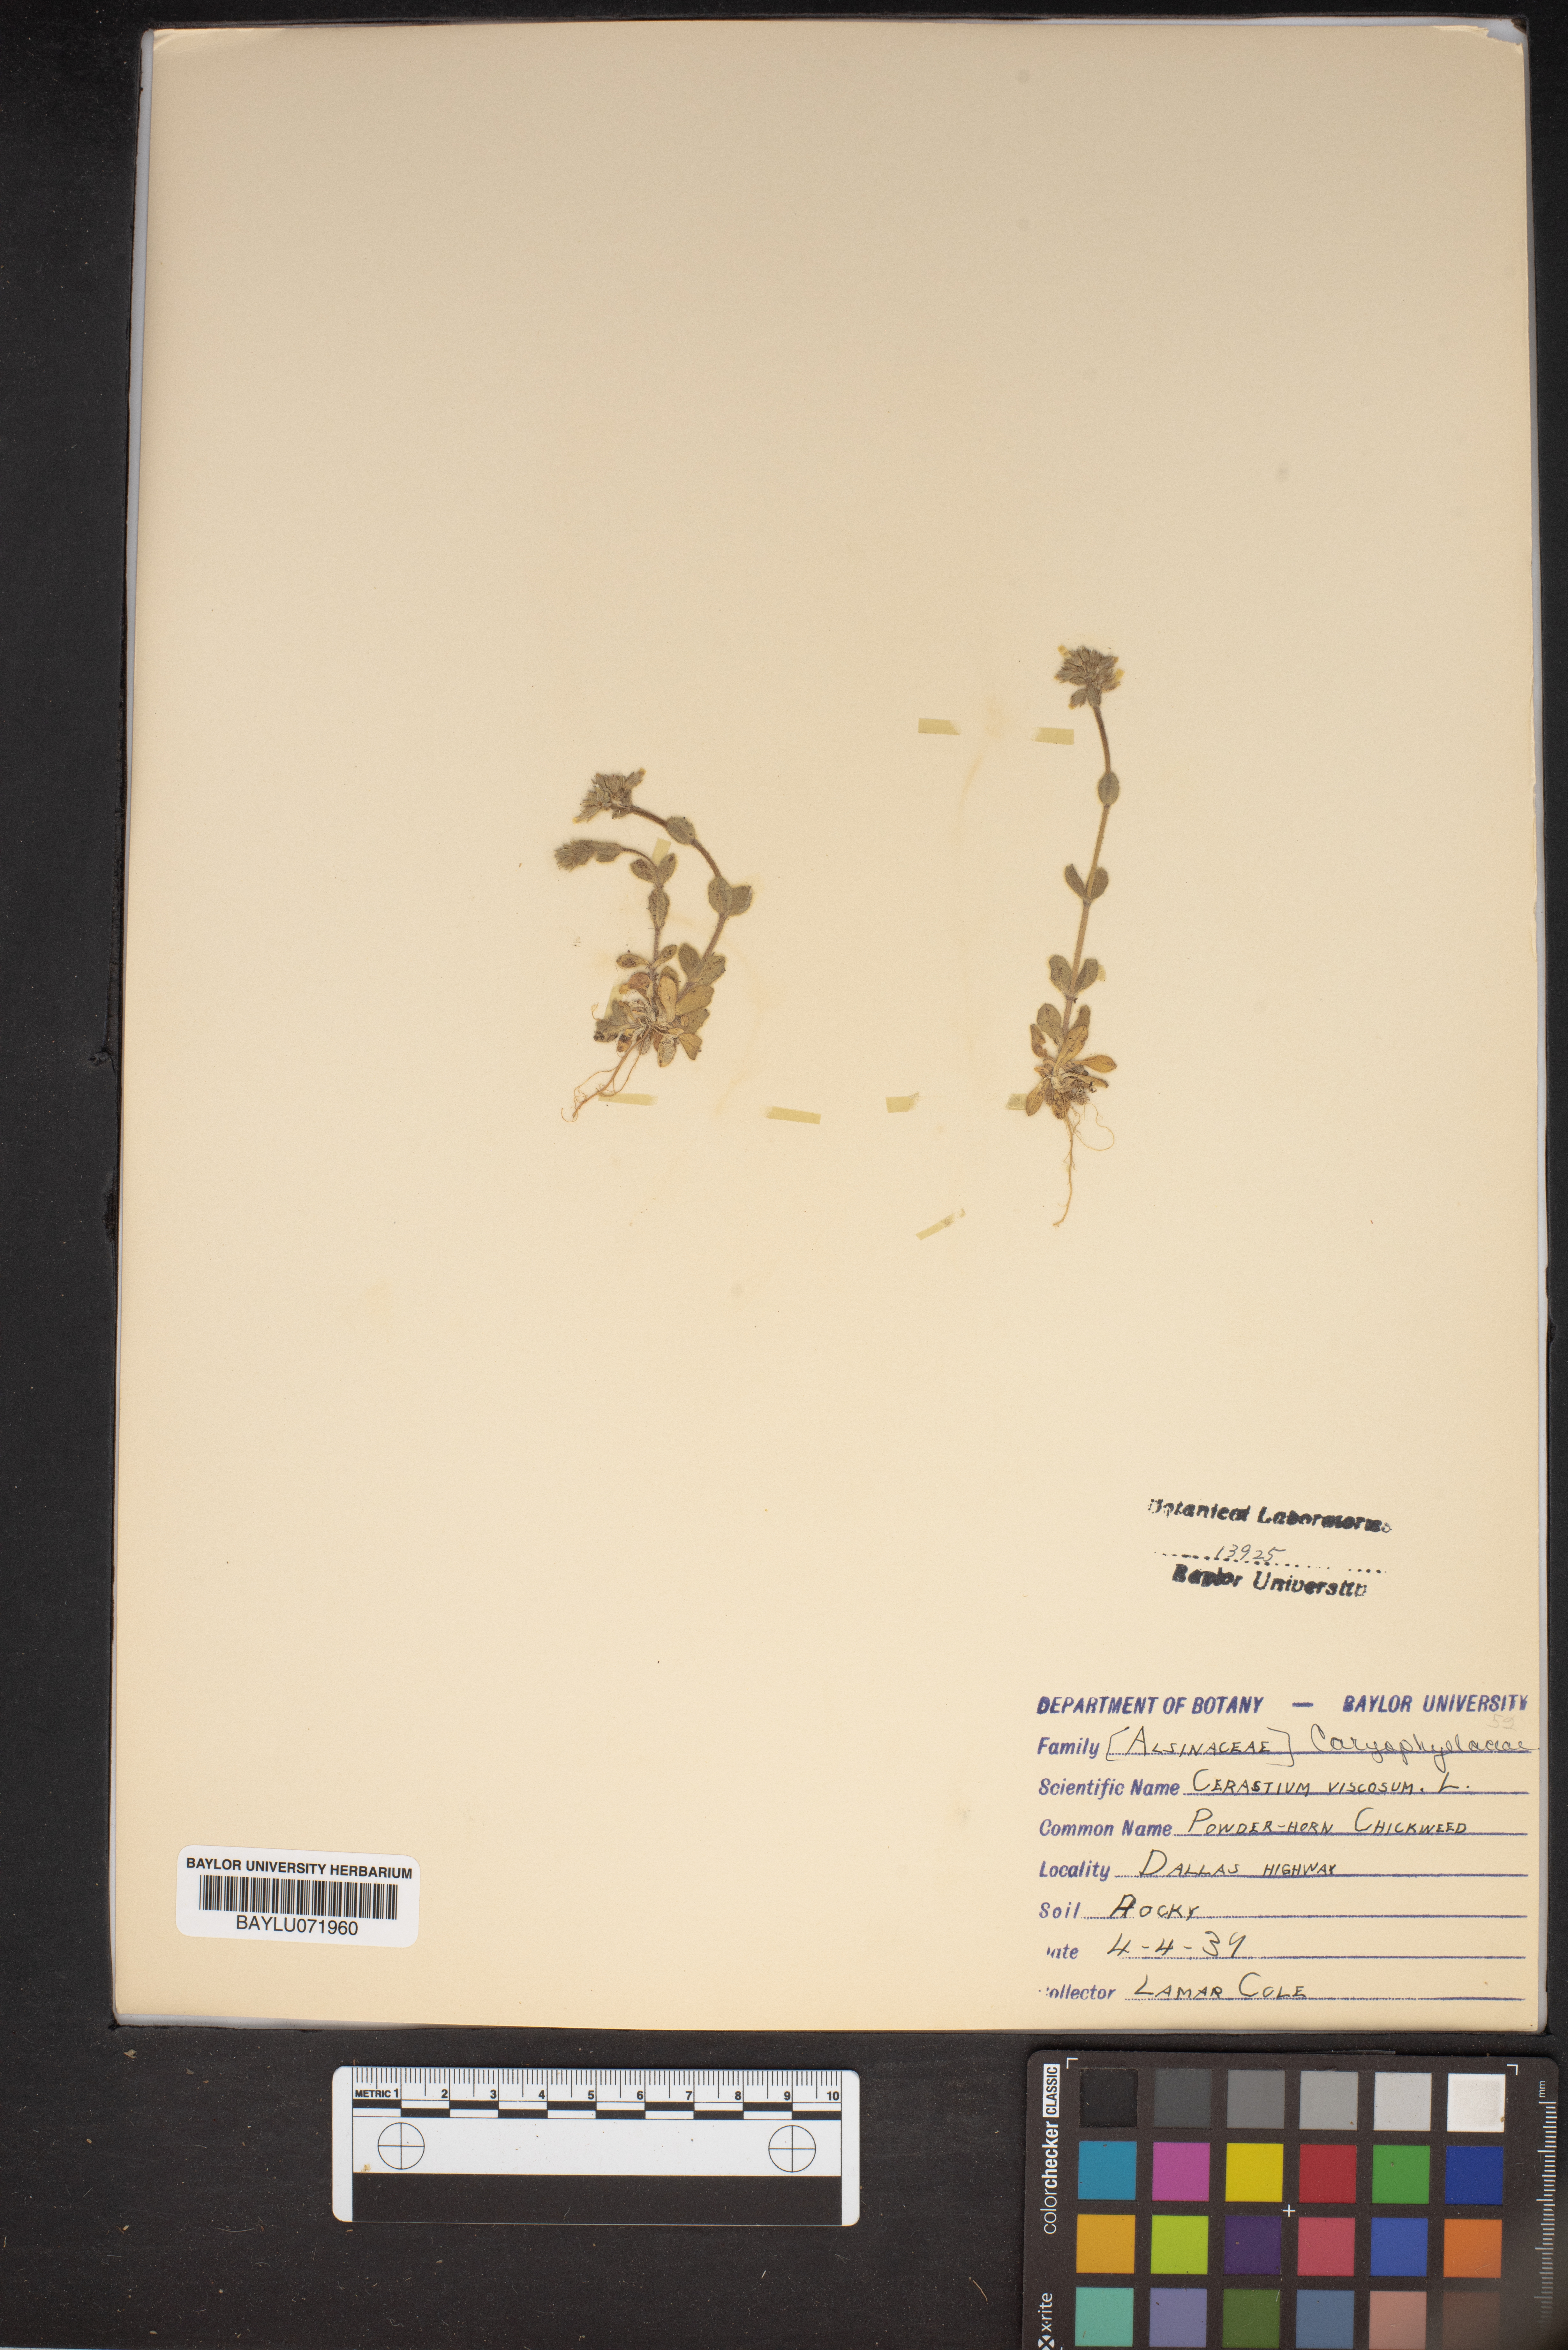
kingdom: Plantae
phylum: Tracheophyta
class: Magnoliopsida
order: Caryophyllales
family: Caryophyllaceae
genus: Cerastium
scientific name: Cerastium holosteoides
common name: Big chickweed
